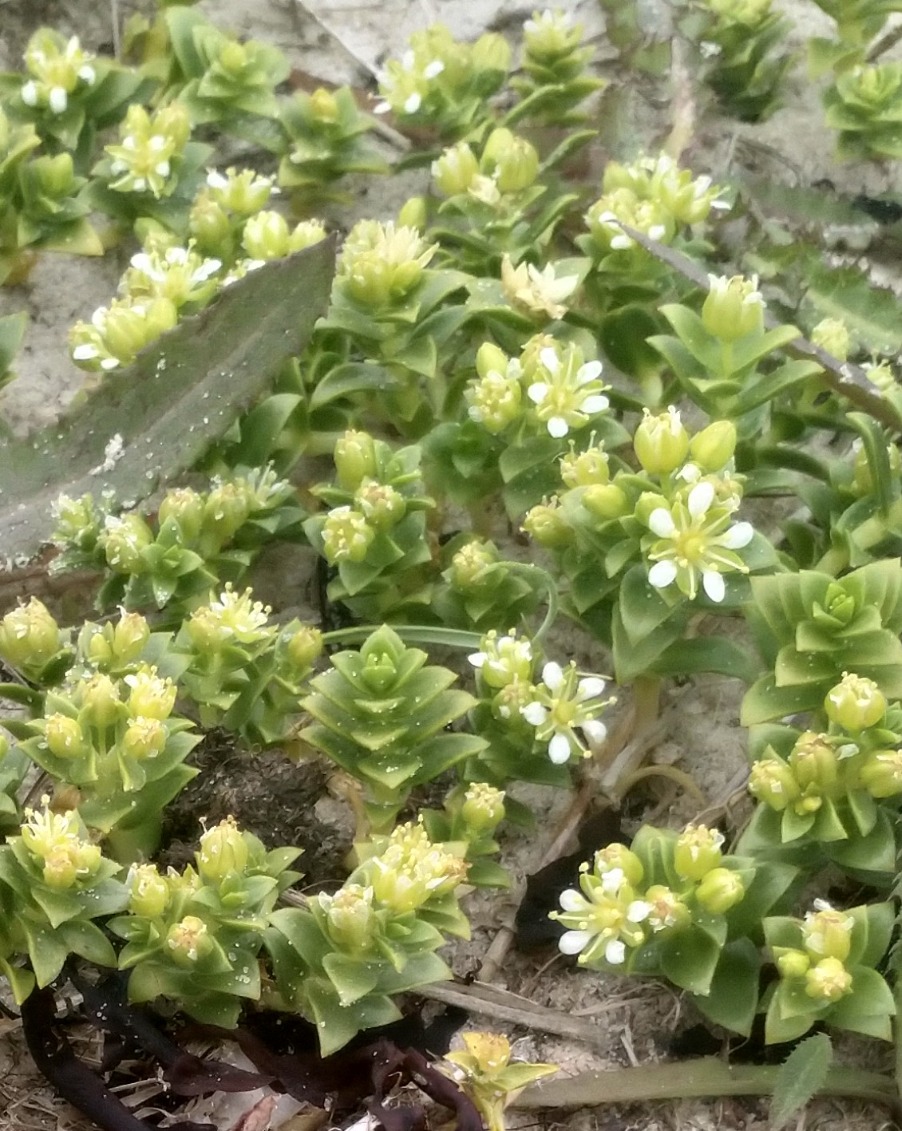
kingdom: Plantae
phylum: Tracheophyta
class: Magnoliopsida
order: Caryophyllales
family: Caryophyllaceae
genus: Honckenya
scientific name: Honckenya peploides
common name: Strandarve
